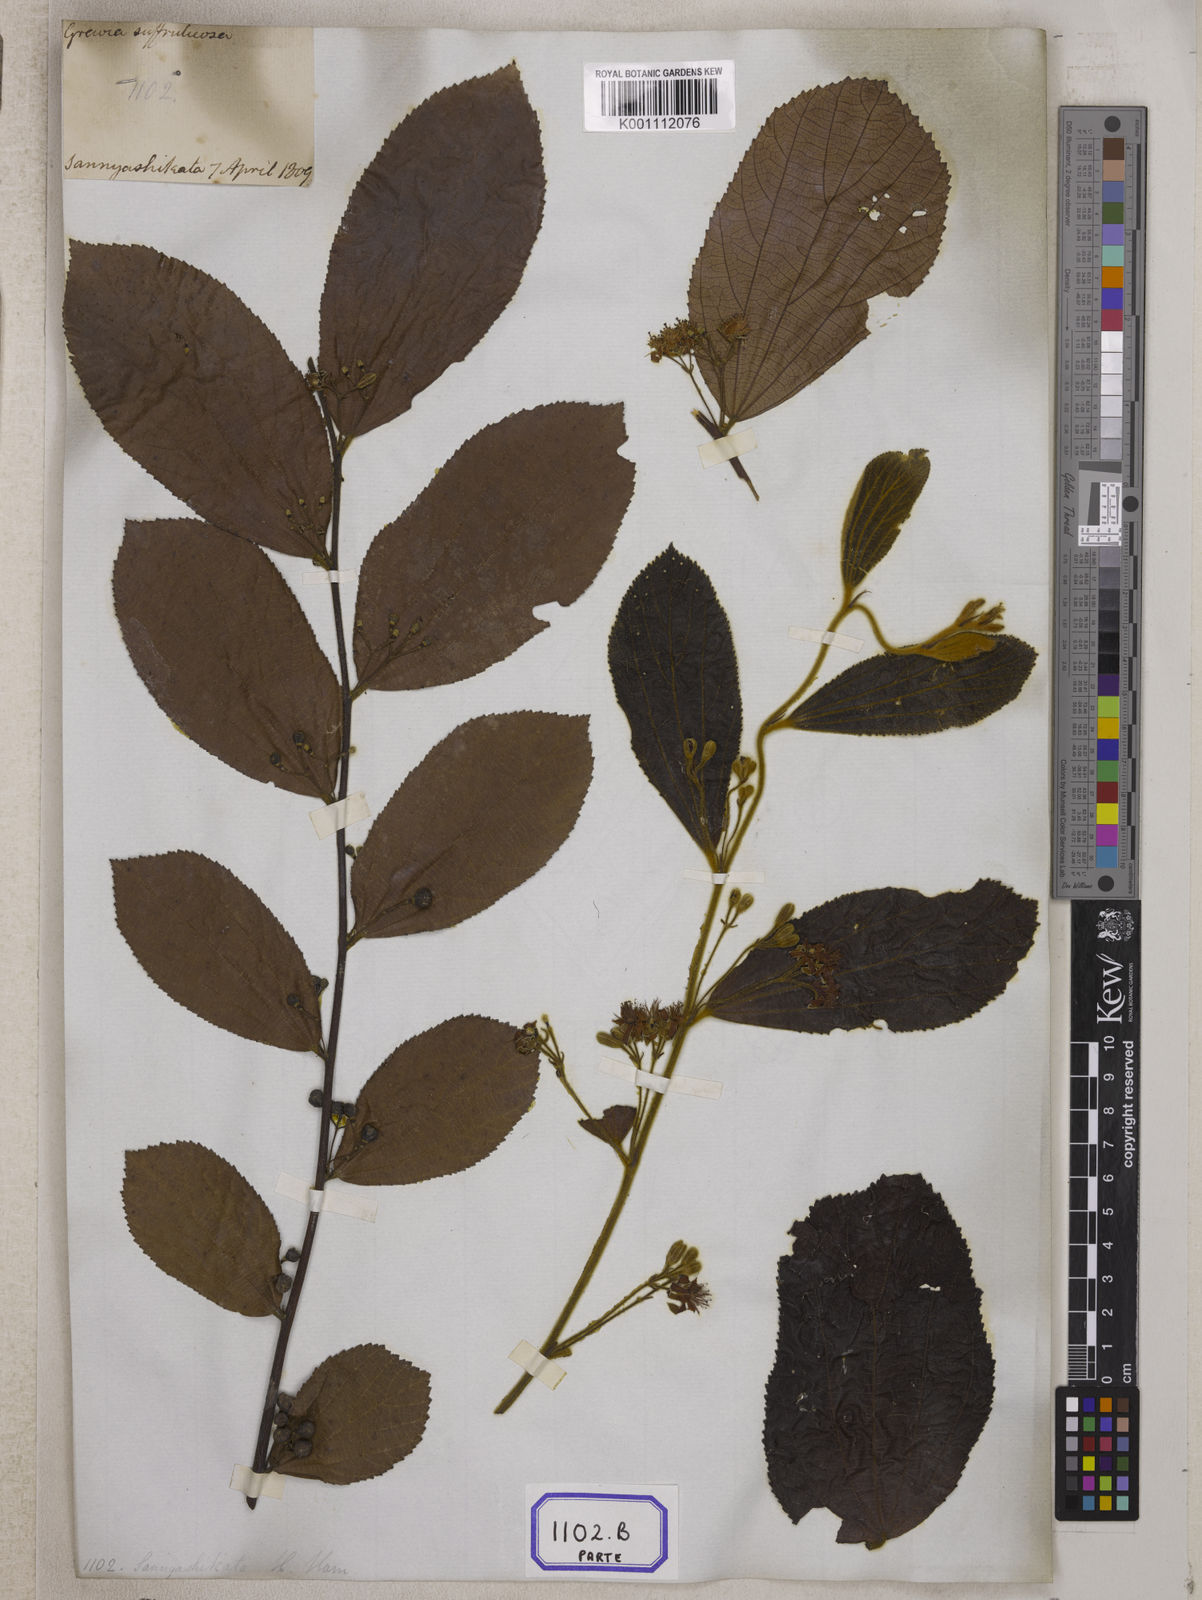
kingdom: Plantae
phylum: Tracheophyta
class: Magnoliopsida
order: Malvales
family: Malvaceae
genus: Grewia
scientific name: Grewia sapida
